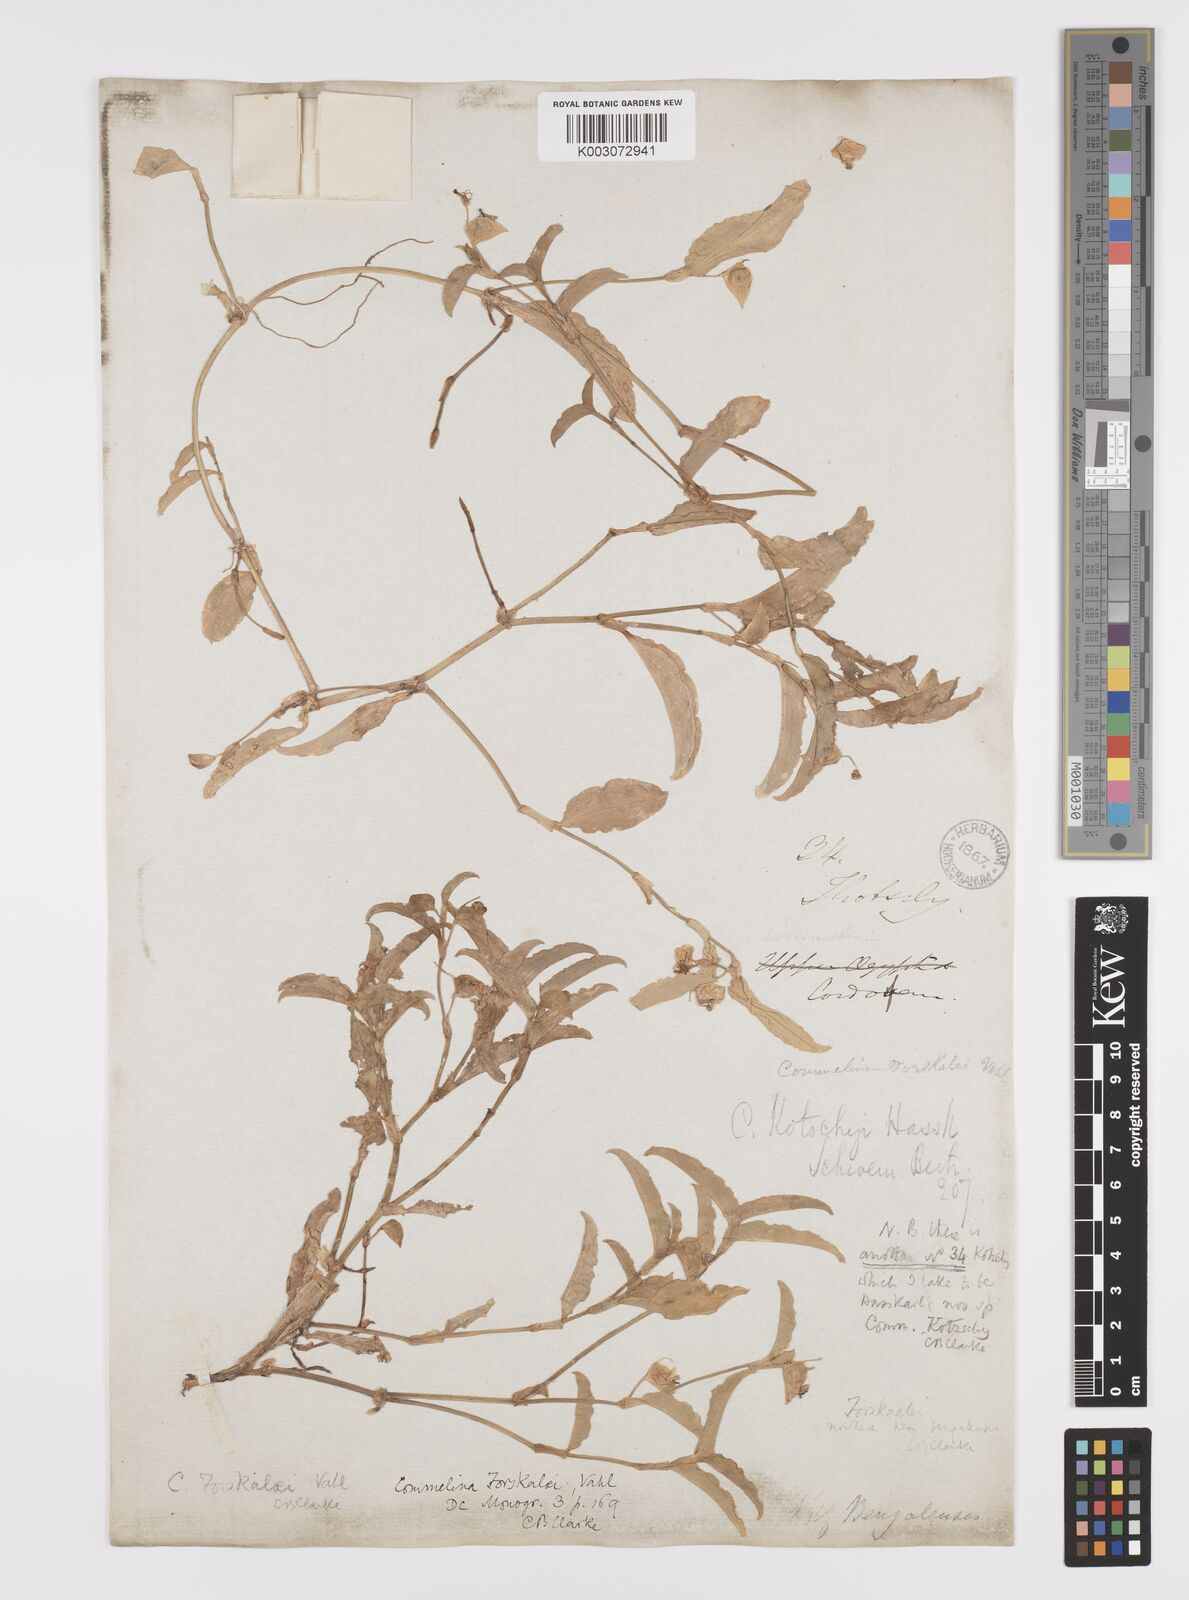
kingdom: Plantae
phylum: Tracheophyta
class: Liliopsida
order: Commelinales
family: Commelinaceae
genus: Commelina
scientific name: Commelina forskaolii
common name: Rat's ear
